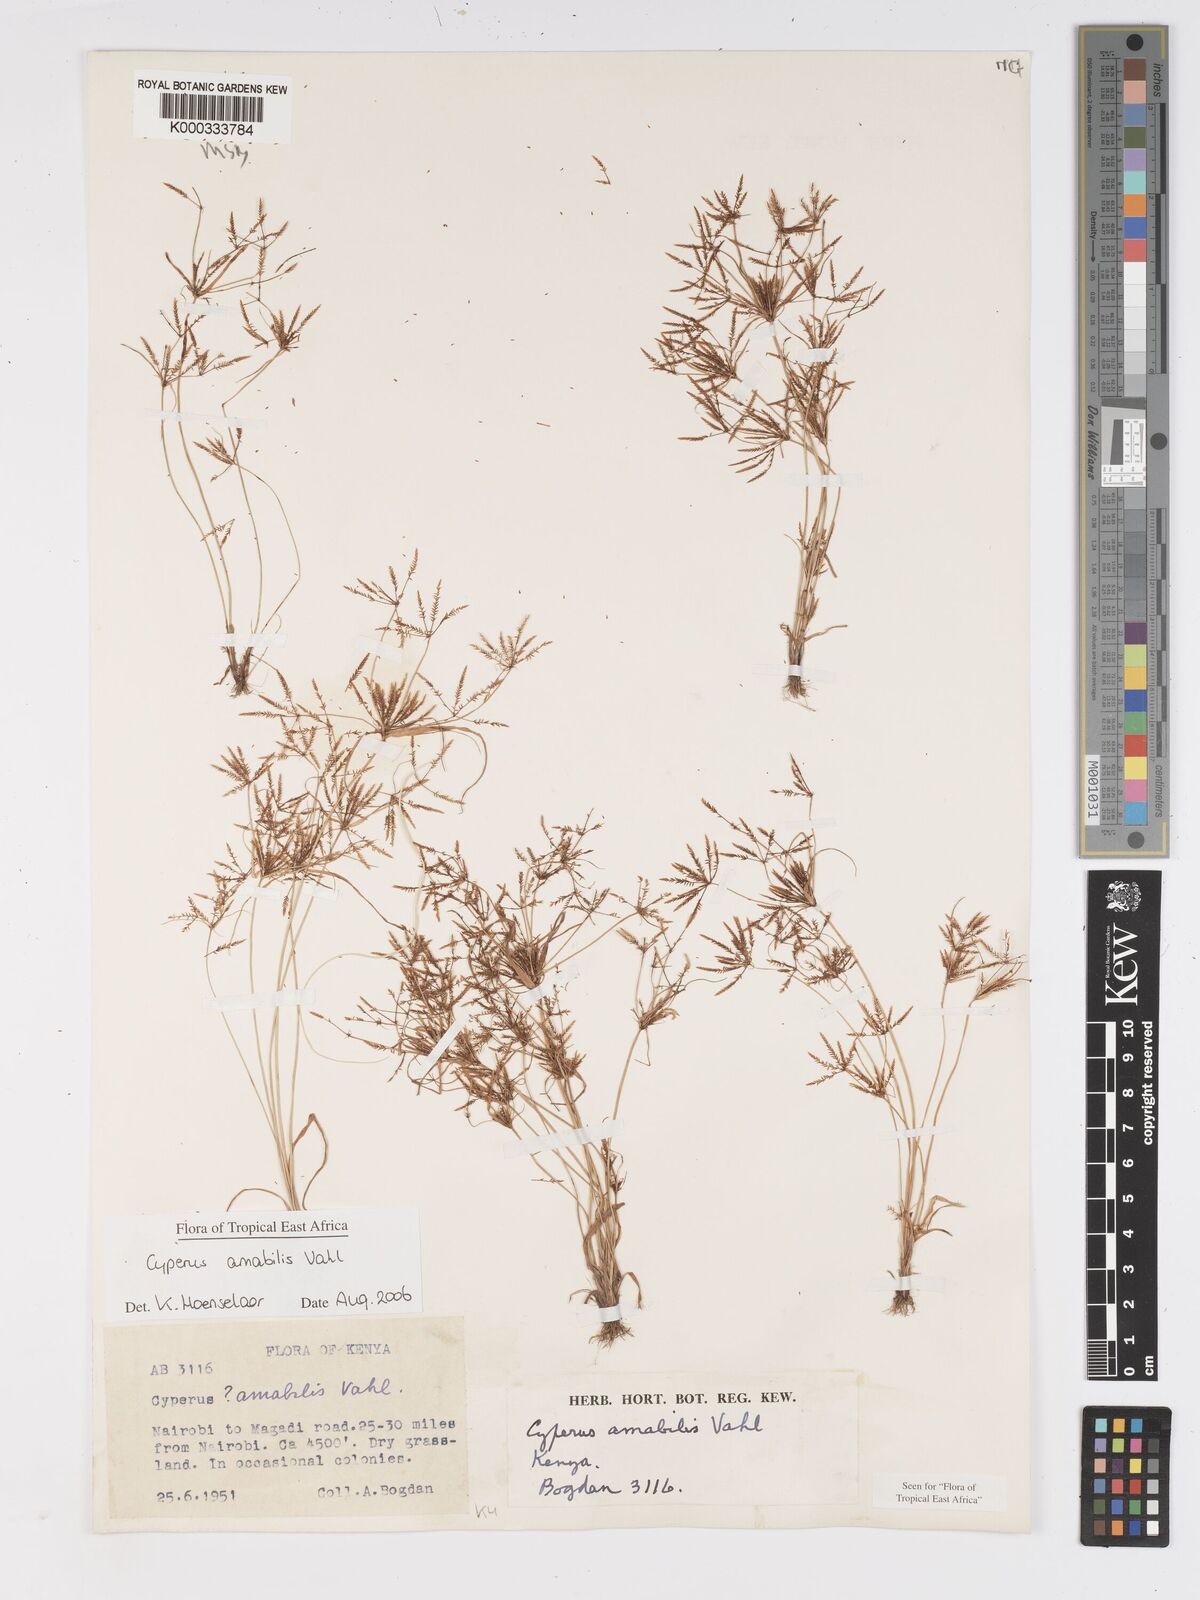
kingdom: Plantae
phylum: Tracheophyta
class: Liliopsida
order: Poales
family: Cyperaceae
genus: Cyperus
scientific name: Cyperus amabilis
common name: Foothill flat sedge
